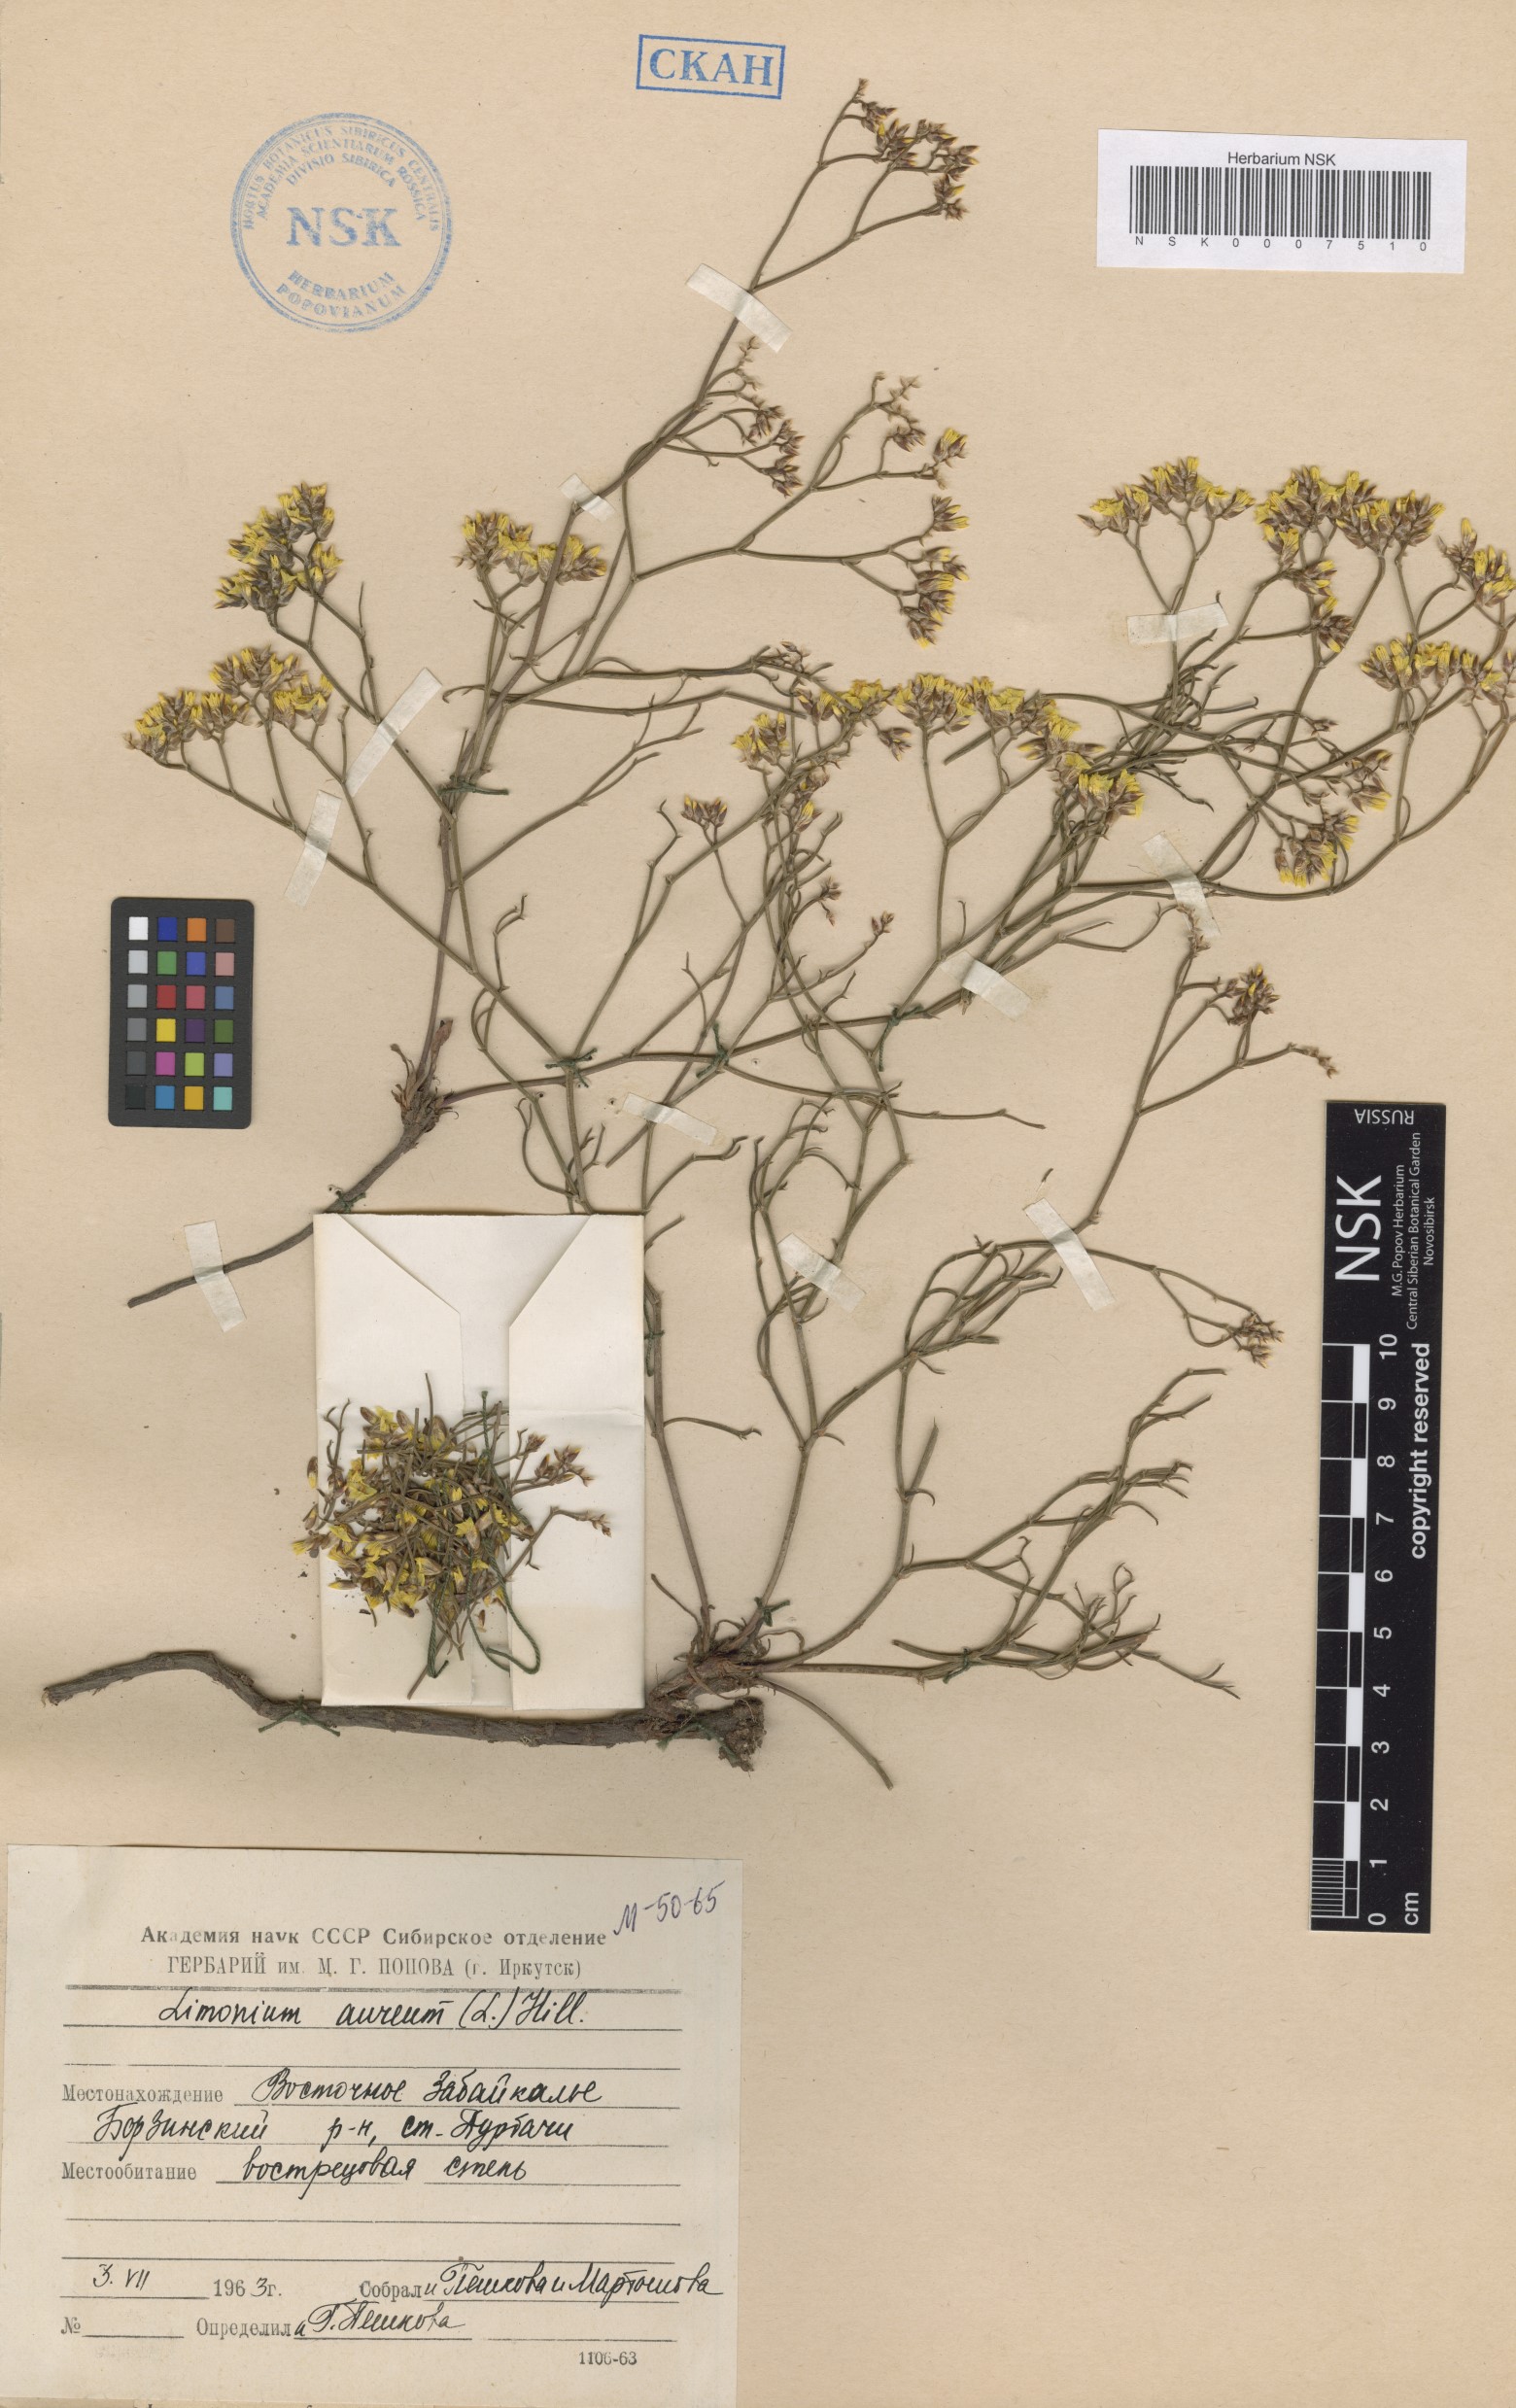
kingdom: Plantae
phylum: Tracheophyta
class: Magnoliopsida
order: Caryophyllales
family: Plumbaginaceae
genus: Limonium
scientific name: Limonium aureum
